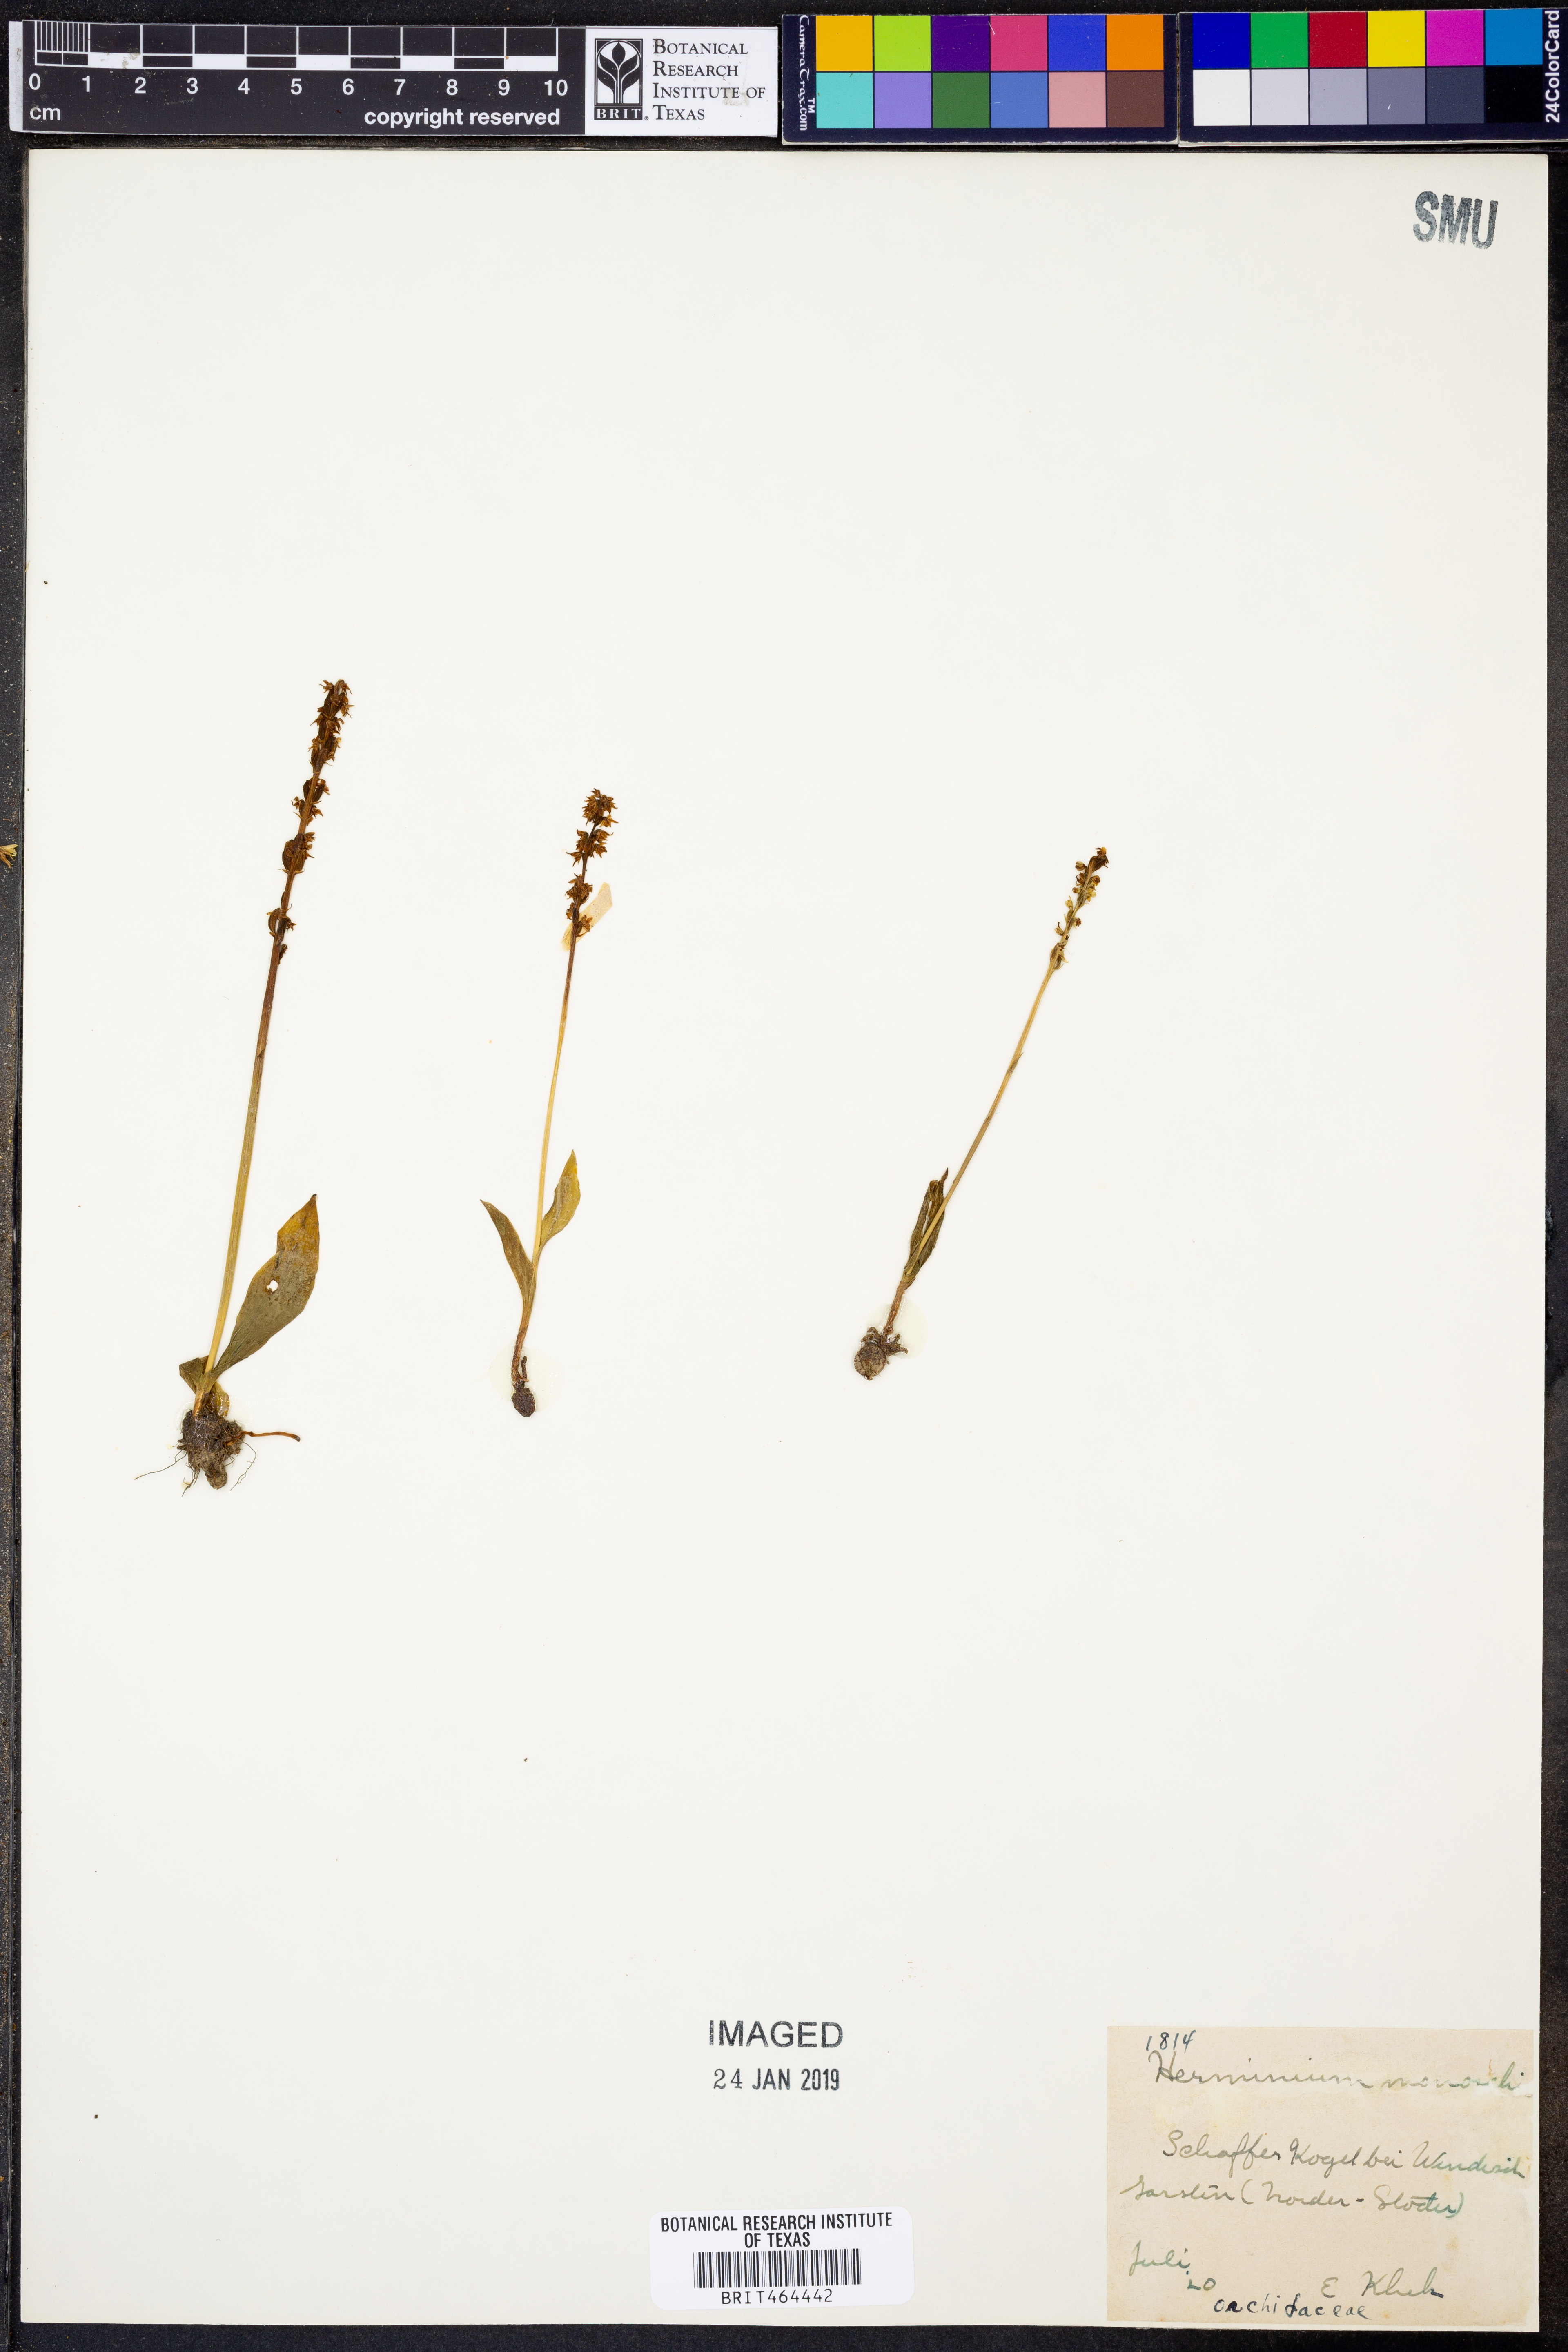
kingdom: Plantae
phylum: Tracheophyta
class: Liliopsida
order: Asparagales
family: Orchidaceae
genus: Herminium
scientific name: Herminium monorchis
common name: Musk orchid
